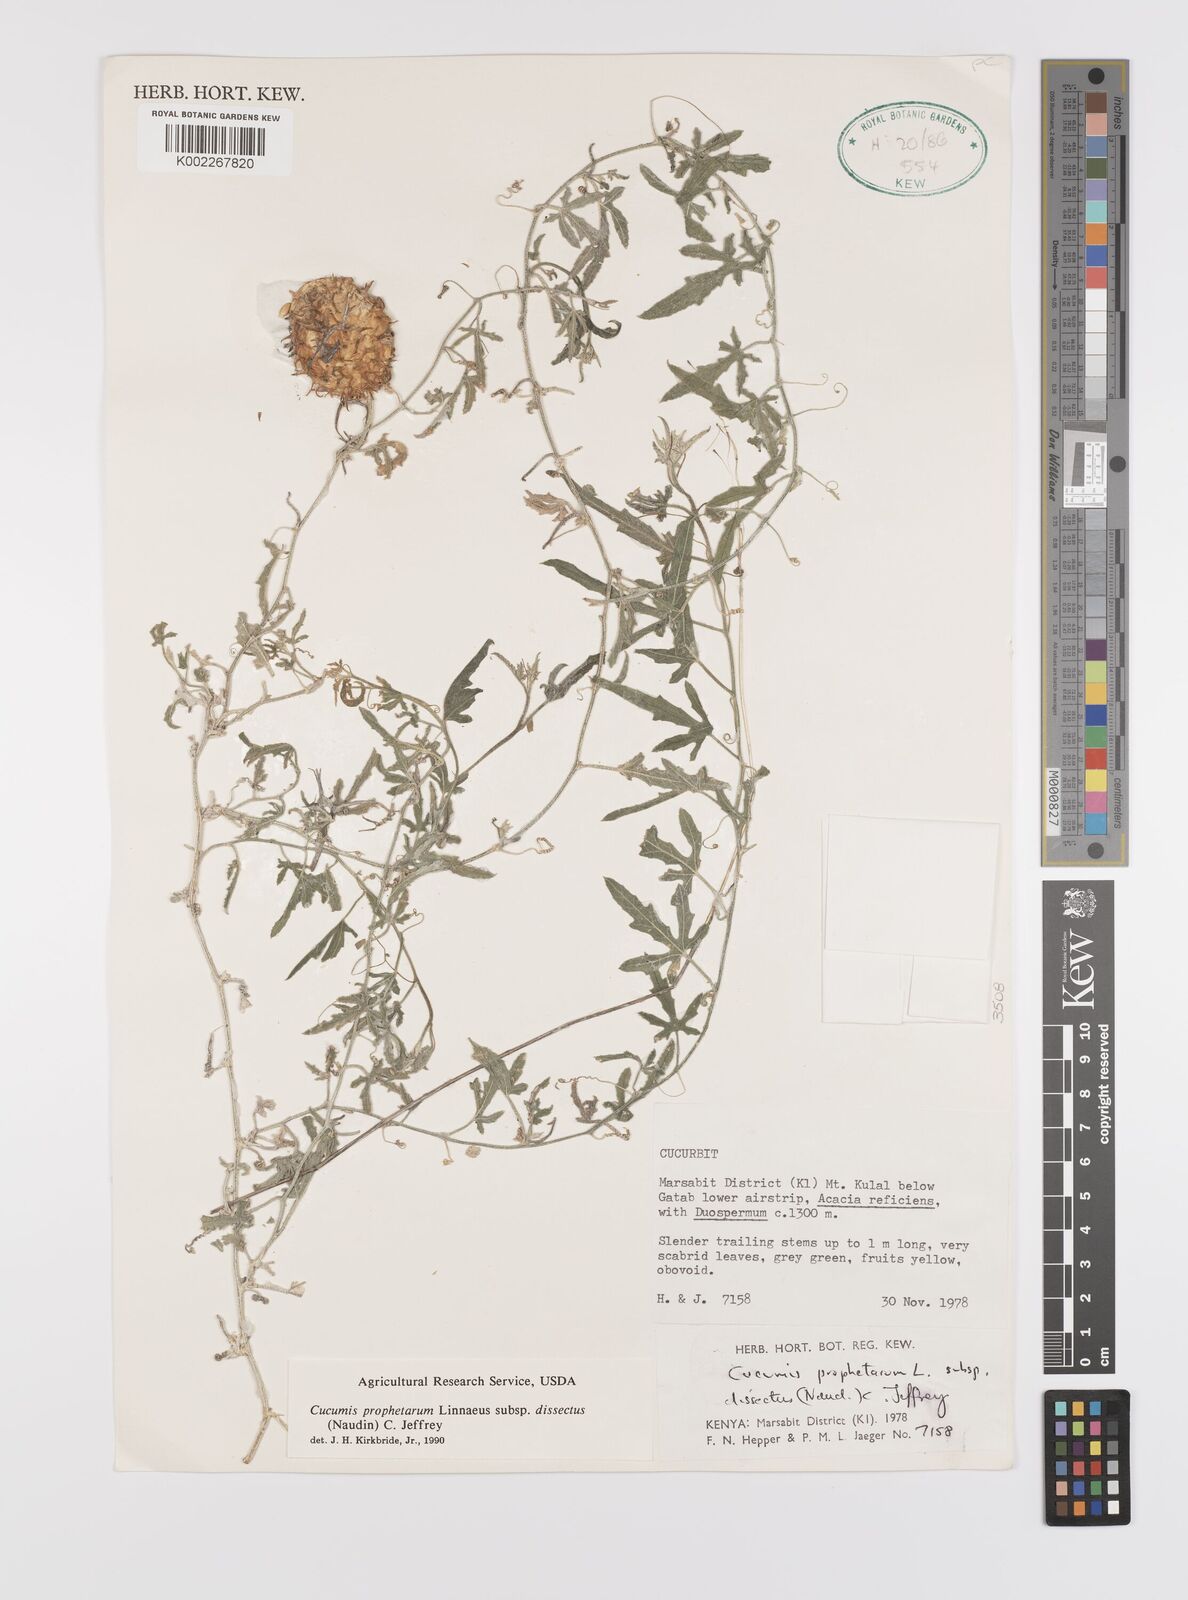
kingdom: Plantae
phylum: Tracheophyta
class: Magnoliopsida
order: Cucurbitales
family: Cucurbitaceae
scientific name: Cucurbitaceae
